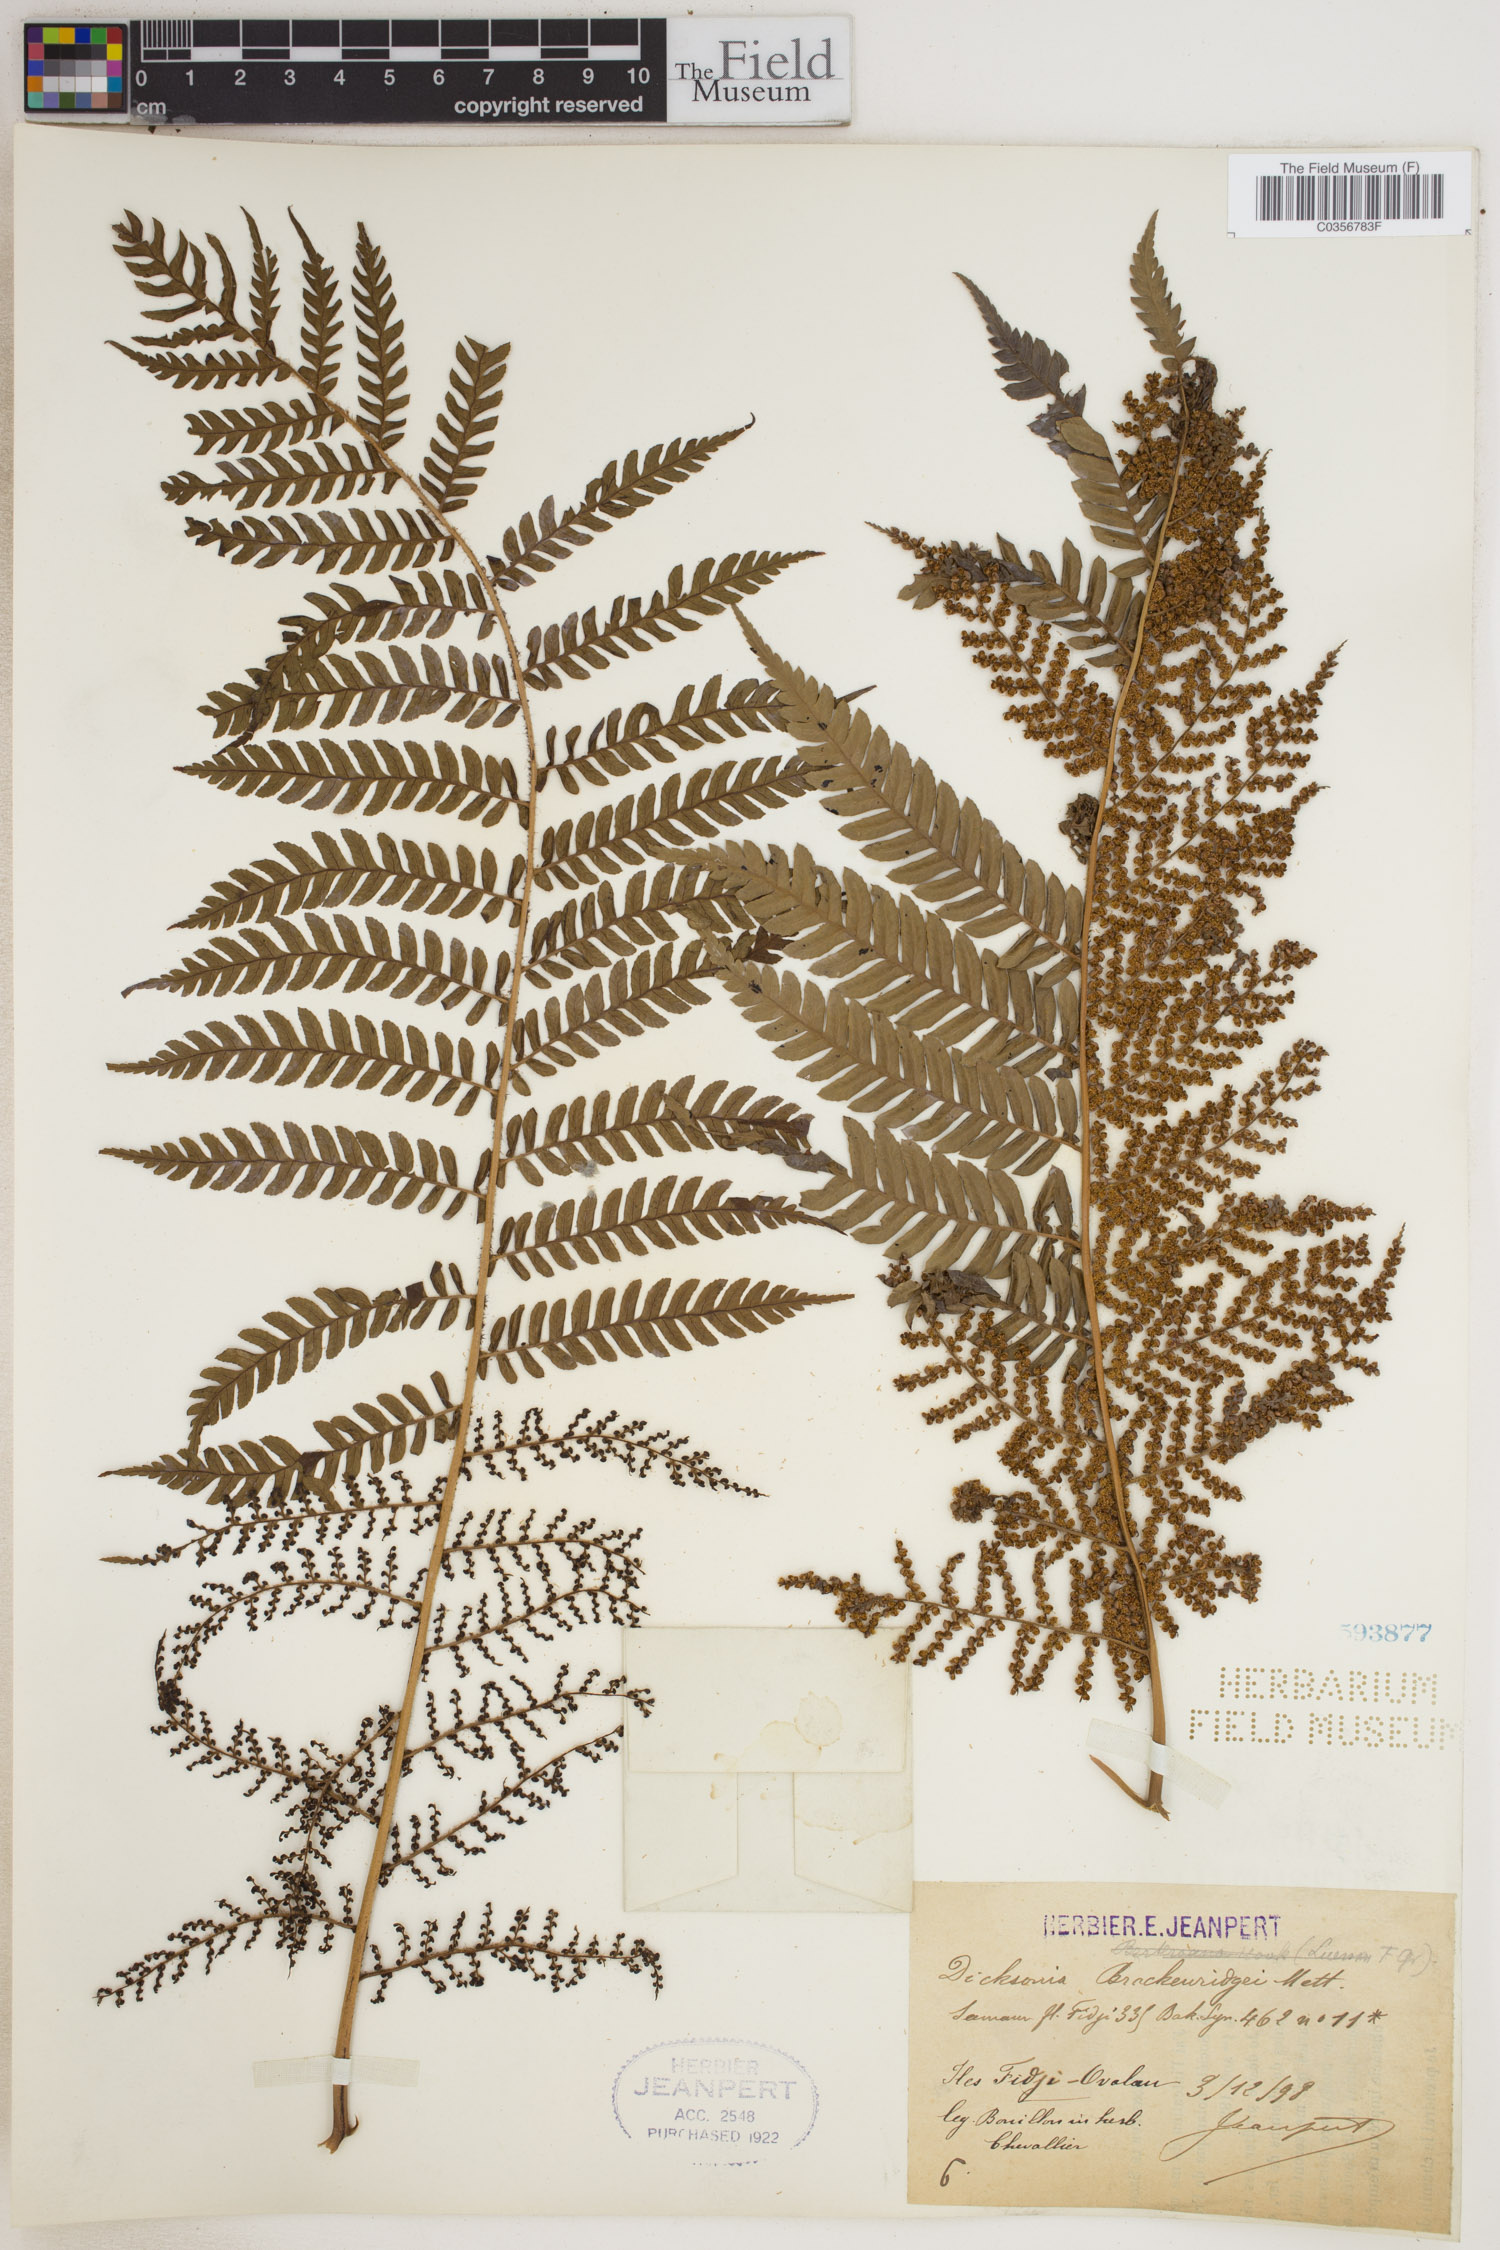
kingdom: Plantae
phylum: Tracheophyta
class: Polypodiopsida
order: Cyatheales
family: Dicksoniaceae
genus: Dicksonia
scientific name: Dicksonia brackenridgei
